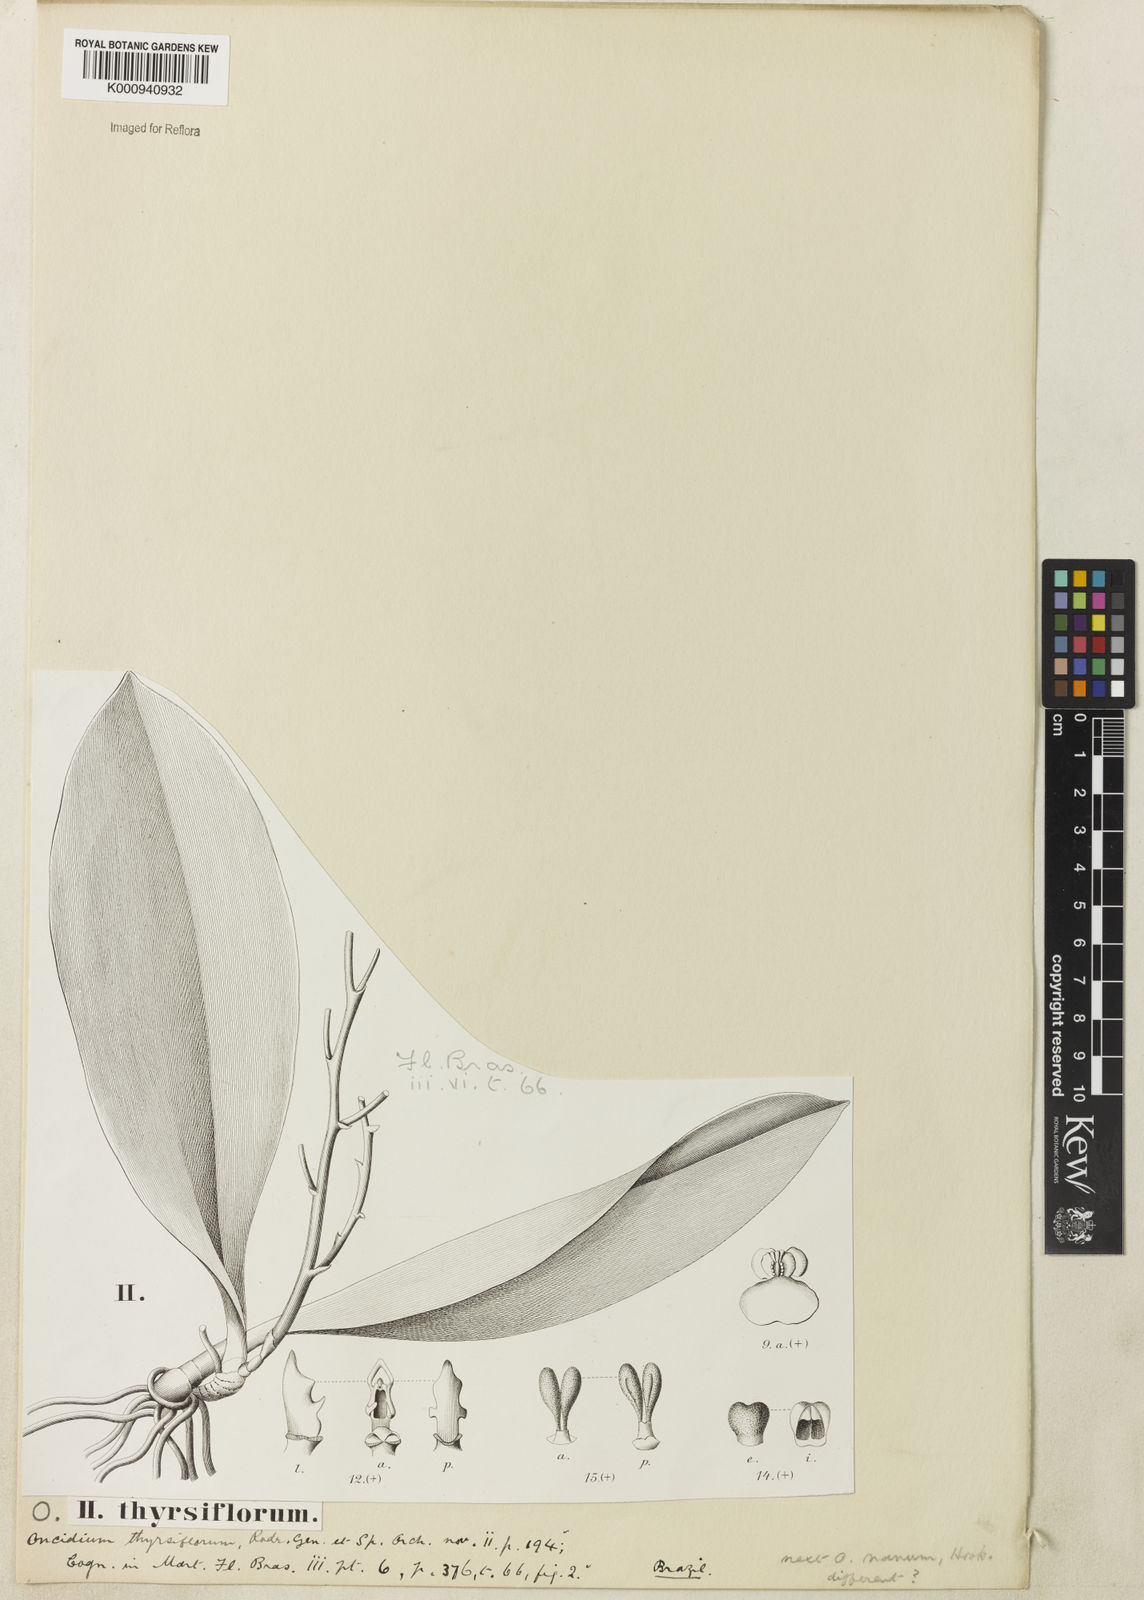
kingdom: Plantae
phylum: Tracheophyta
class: Liliopsida
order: Asparagales
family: Orchidaceae
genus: Trichocentrum
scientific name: Trichocentrum nanum
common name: Mule-ear orchid
